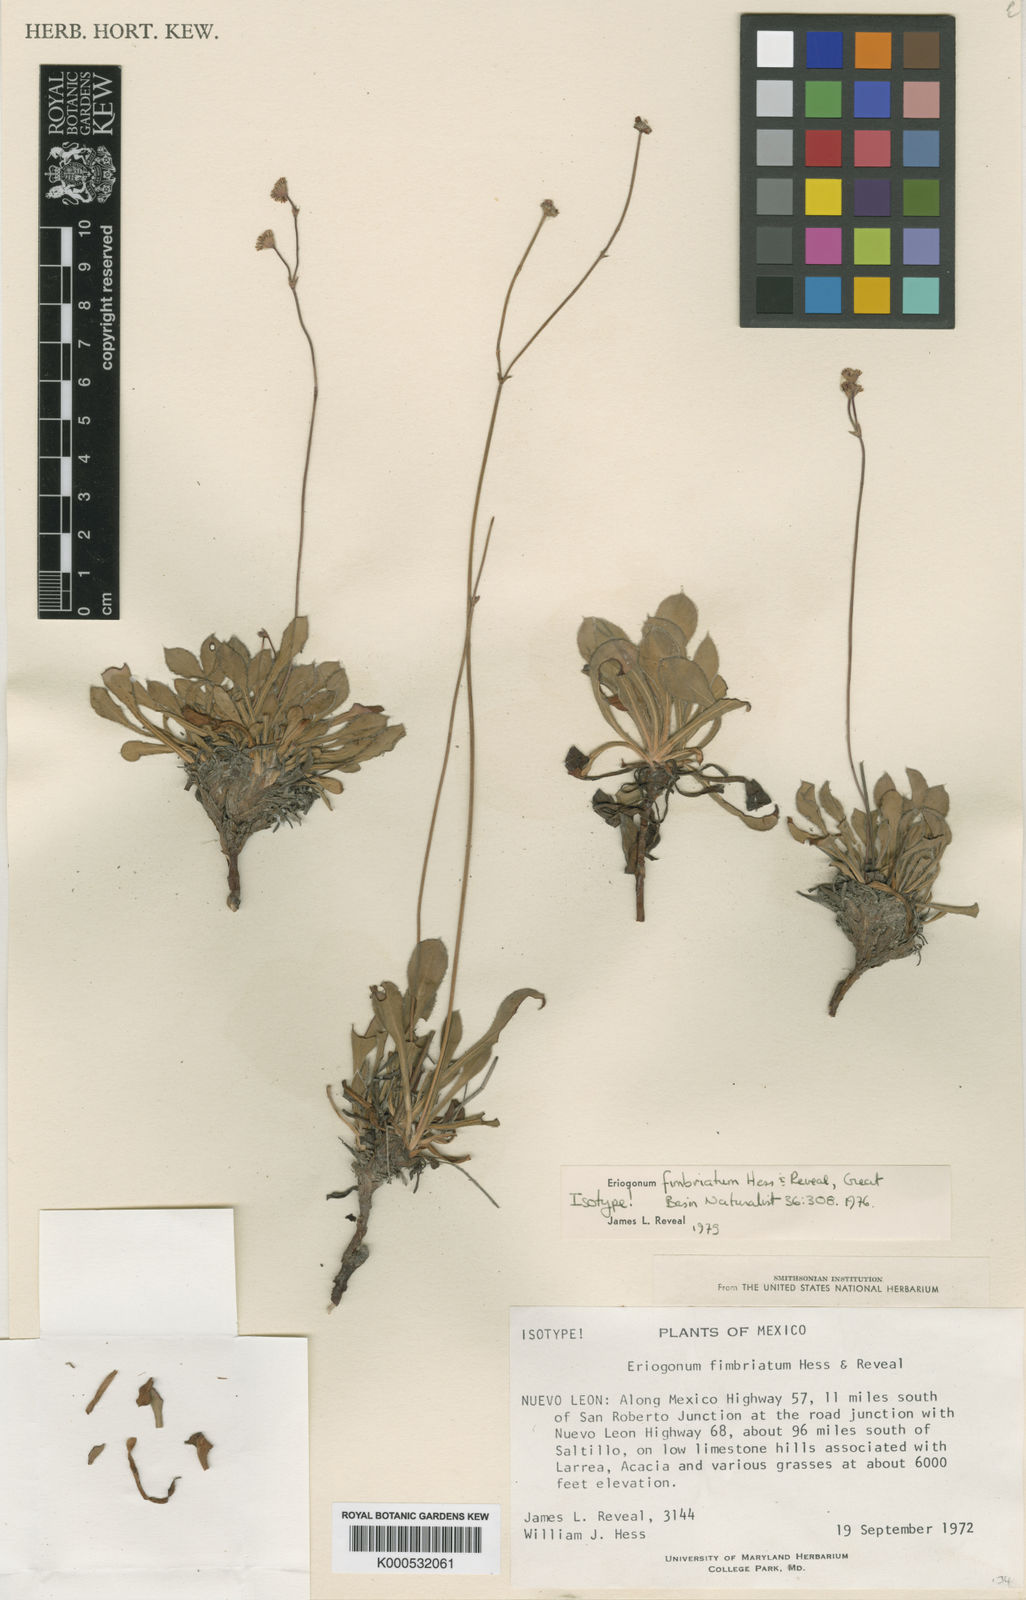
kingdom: Plantae
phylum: Tracheophyta
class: Magnoliopsida
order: Caryophyllales
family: Polygonaceae
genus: Eriogonum
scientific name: Eriogonum fimbriatum
